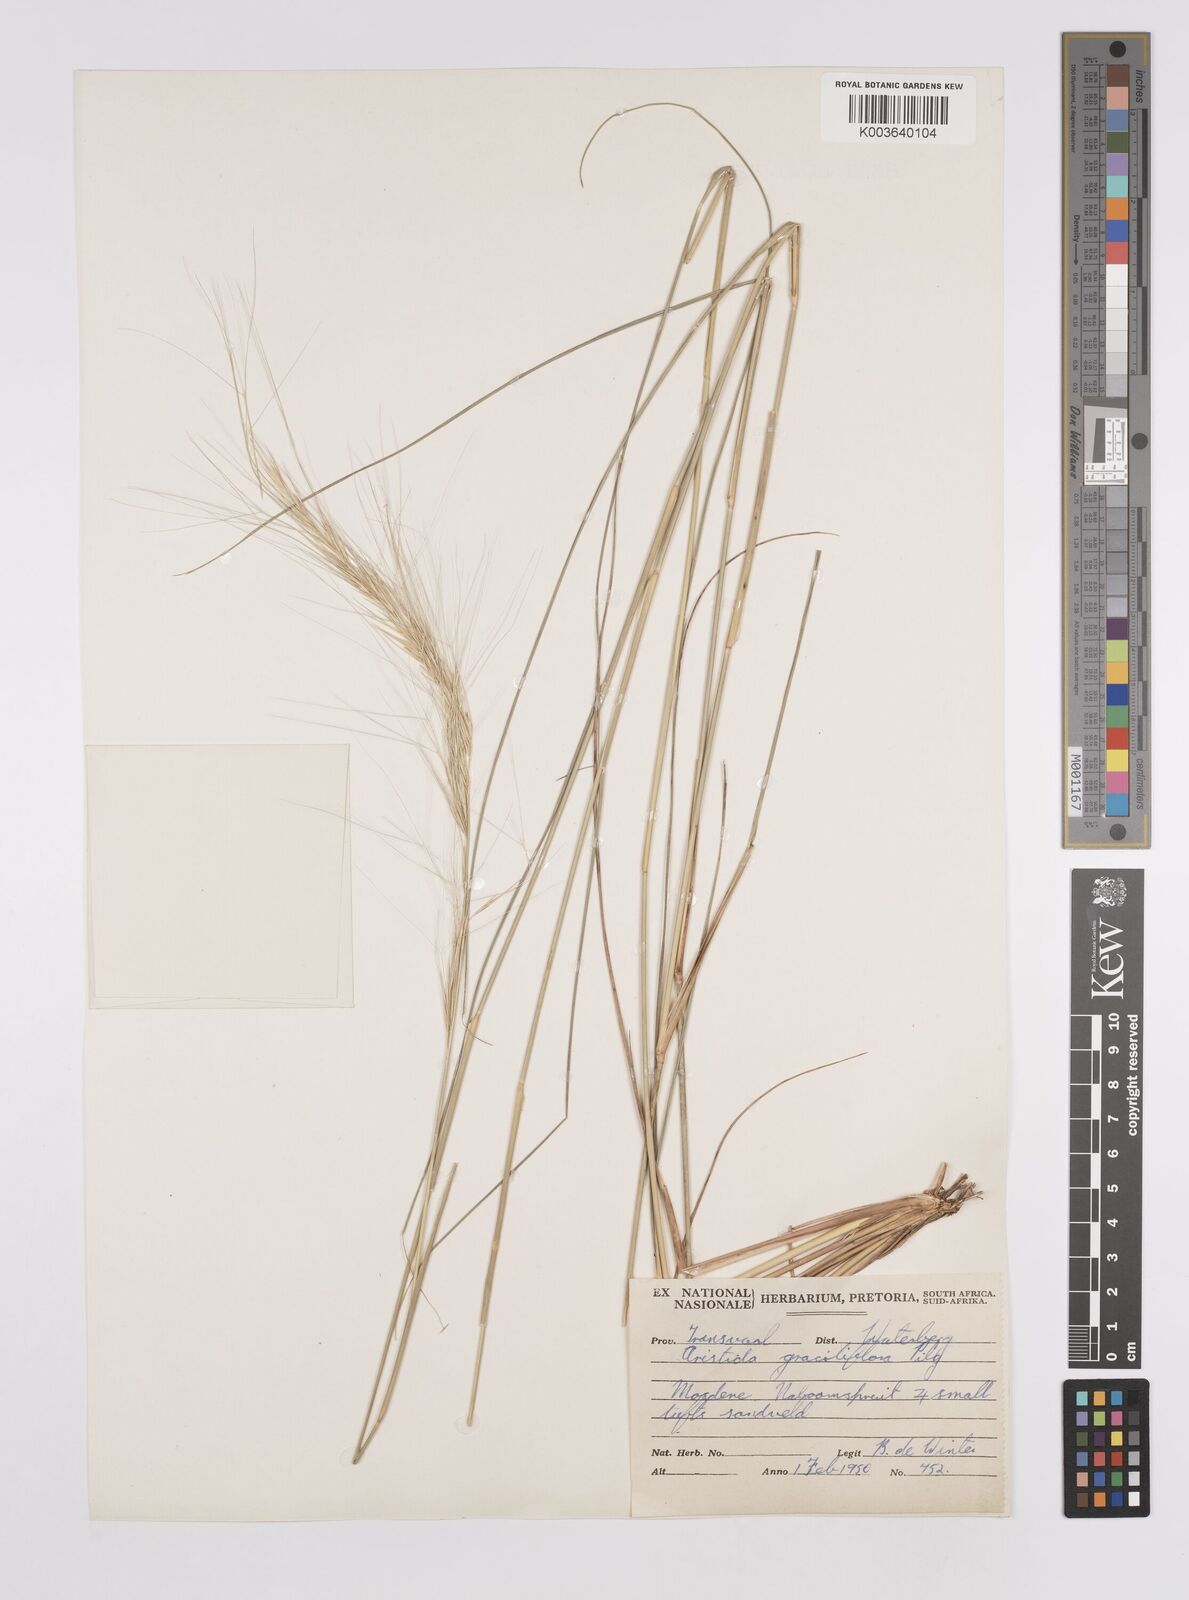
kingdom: Plantae
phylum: Tracheophyta
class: Liliopsida
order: Poales
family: Poaceae
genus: Aristida
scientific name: Aristida stipitata
